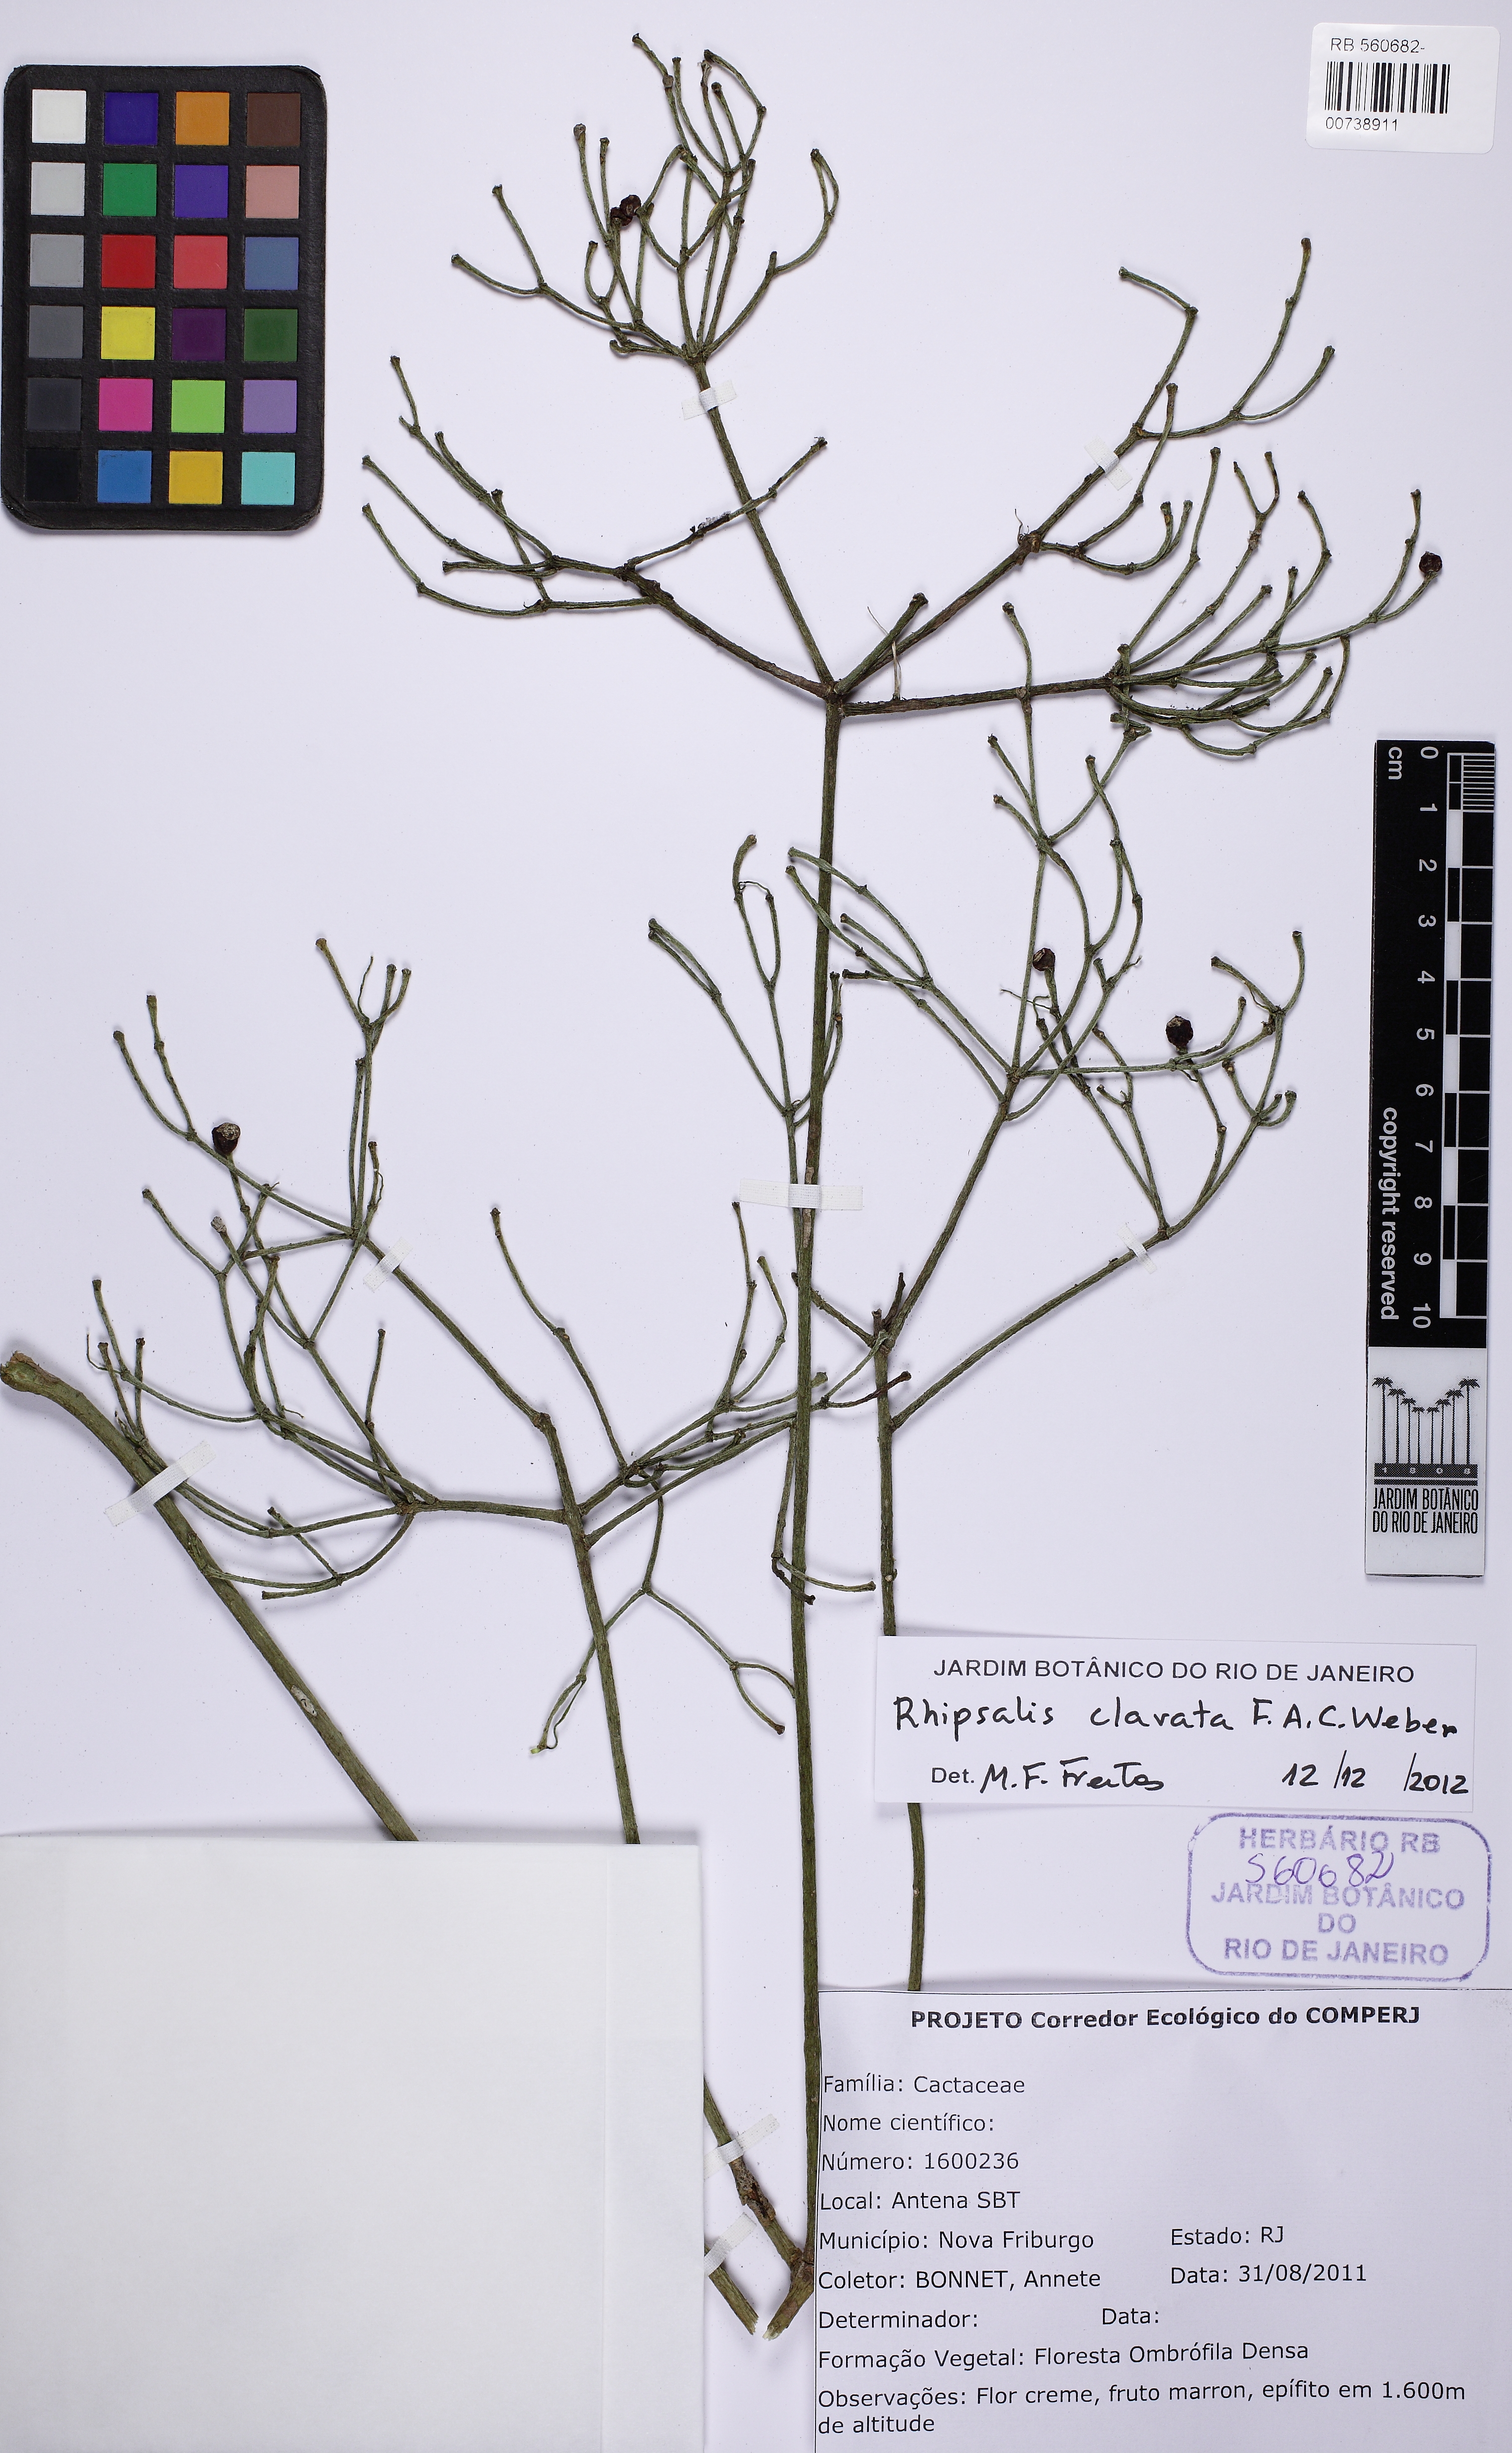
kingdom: Plantae
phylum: Tracheophyta
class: Magnoliopsida
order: Caryophyllales
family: Cactaceae
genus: Rhipsalis
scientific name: Rhipsalis clavata
